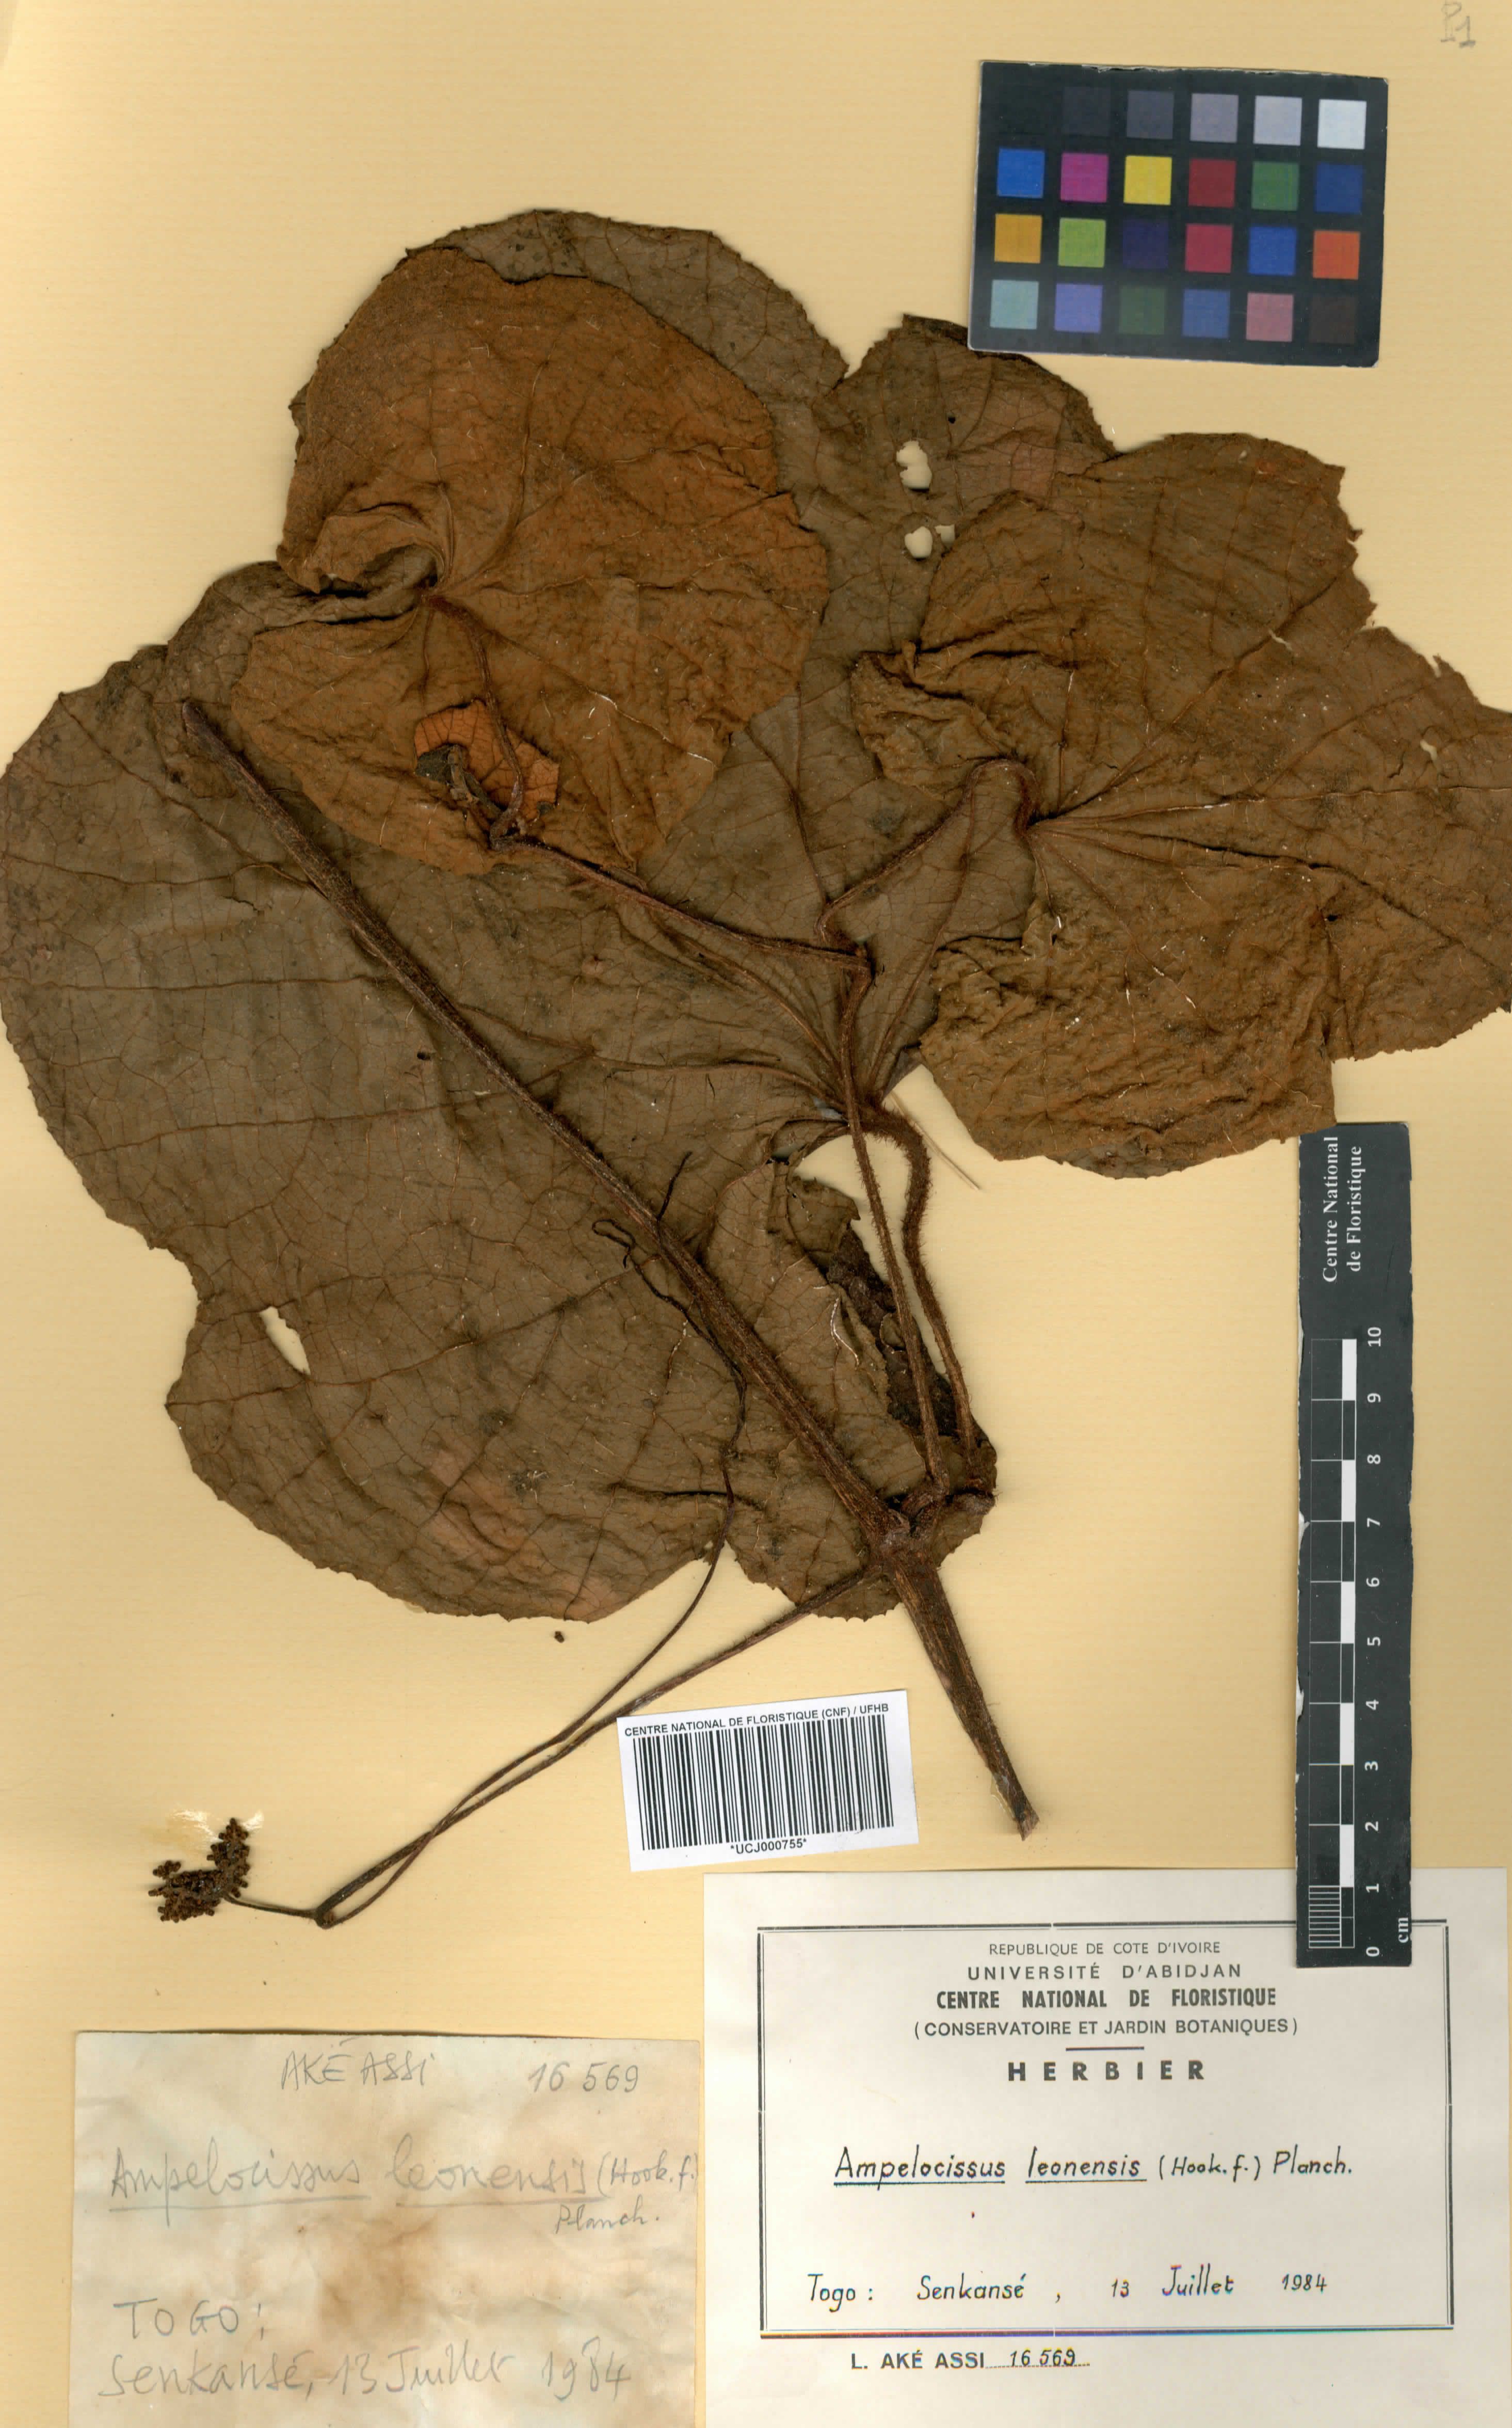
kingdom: Plantae
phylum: Tracheophyta
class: Magnoliopsida
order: Vitales
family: Vitaceae
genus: Ampelocissus
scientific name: Ampelocissus leonensis
